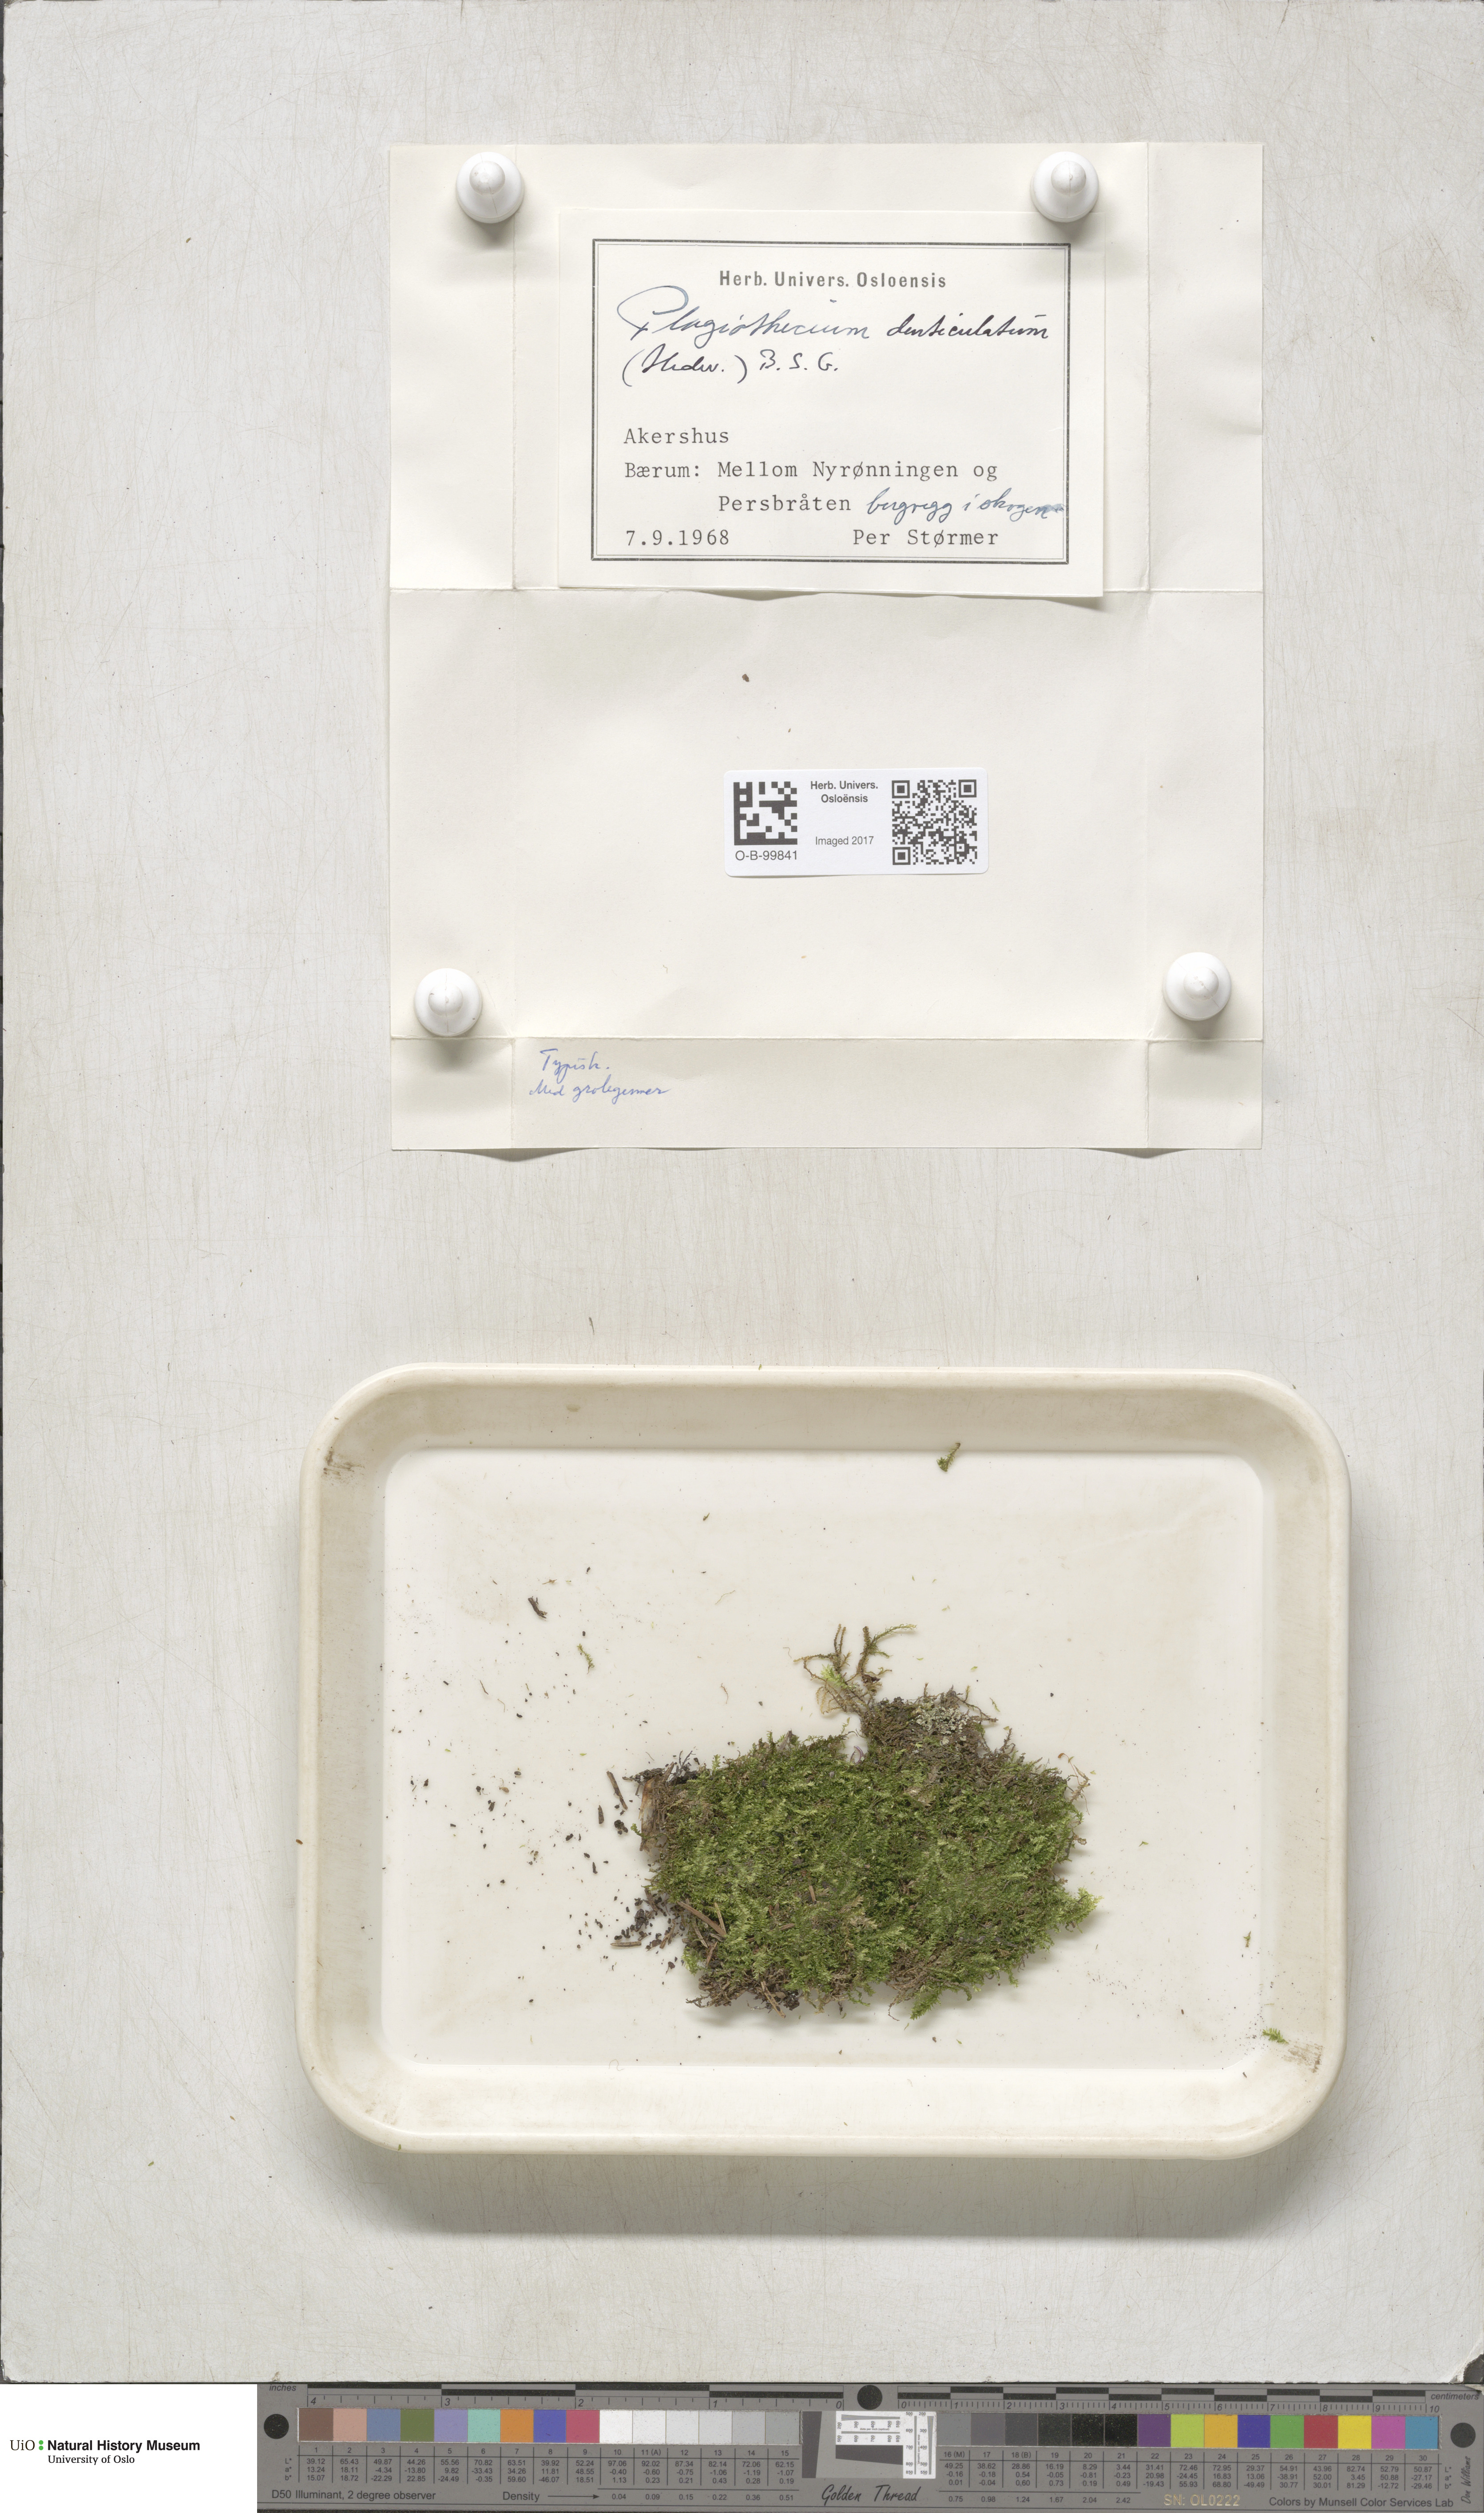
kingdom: Plantae
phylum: Bryophyta
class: Bryopsida
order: Hypnales
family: Plagiotheciaceae
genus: Plagiothecium
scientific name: Plagiothecium denticulatum
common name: Dented silk moss
